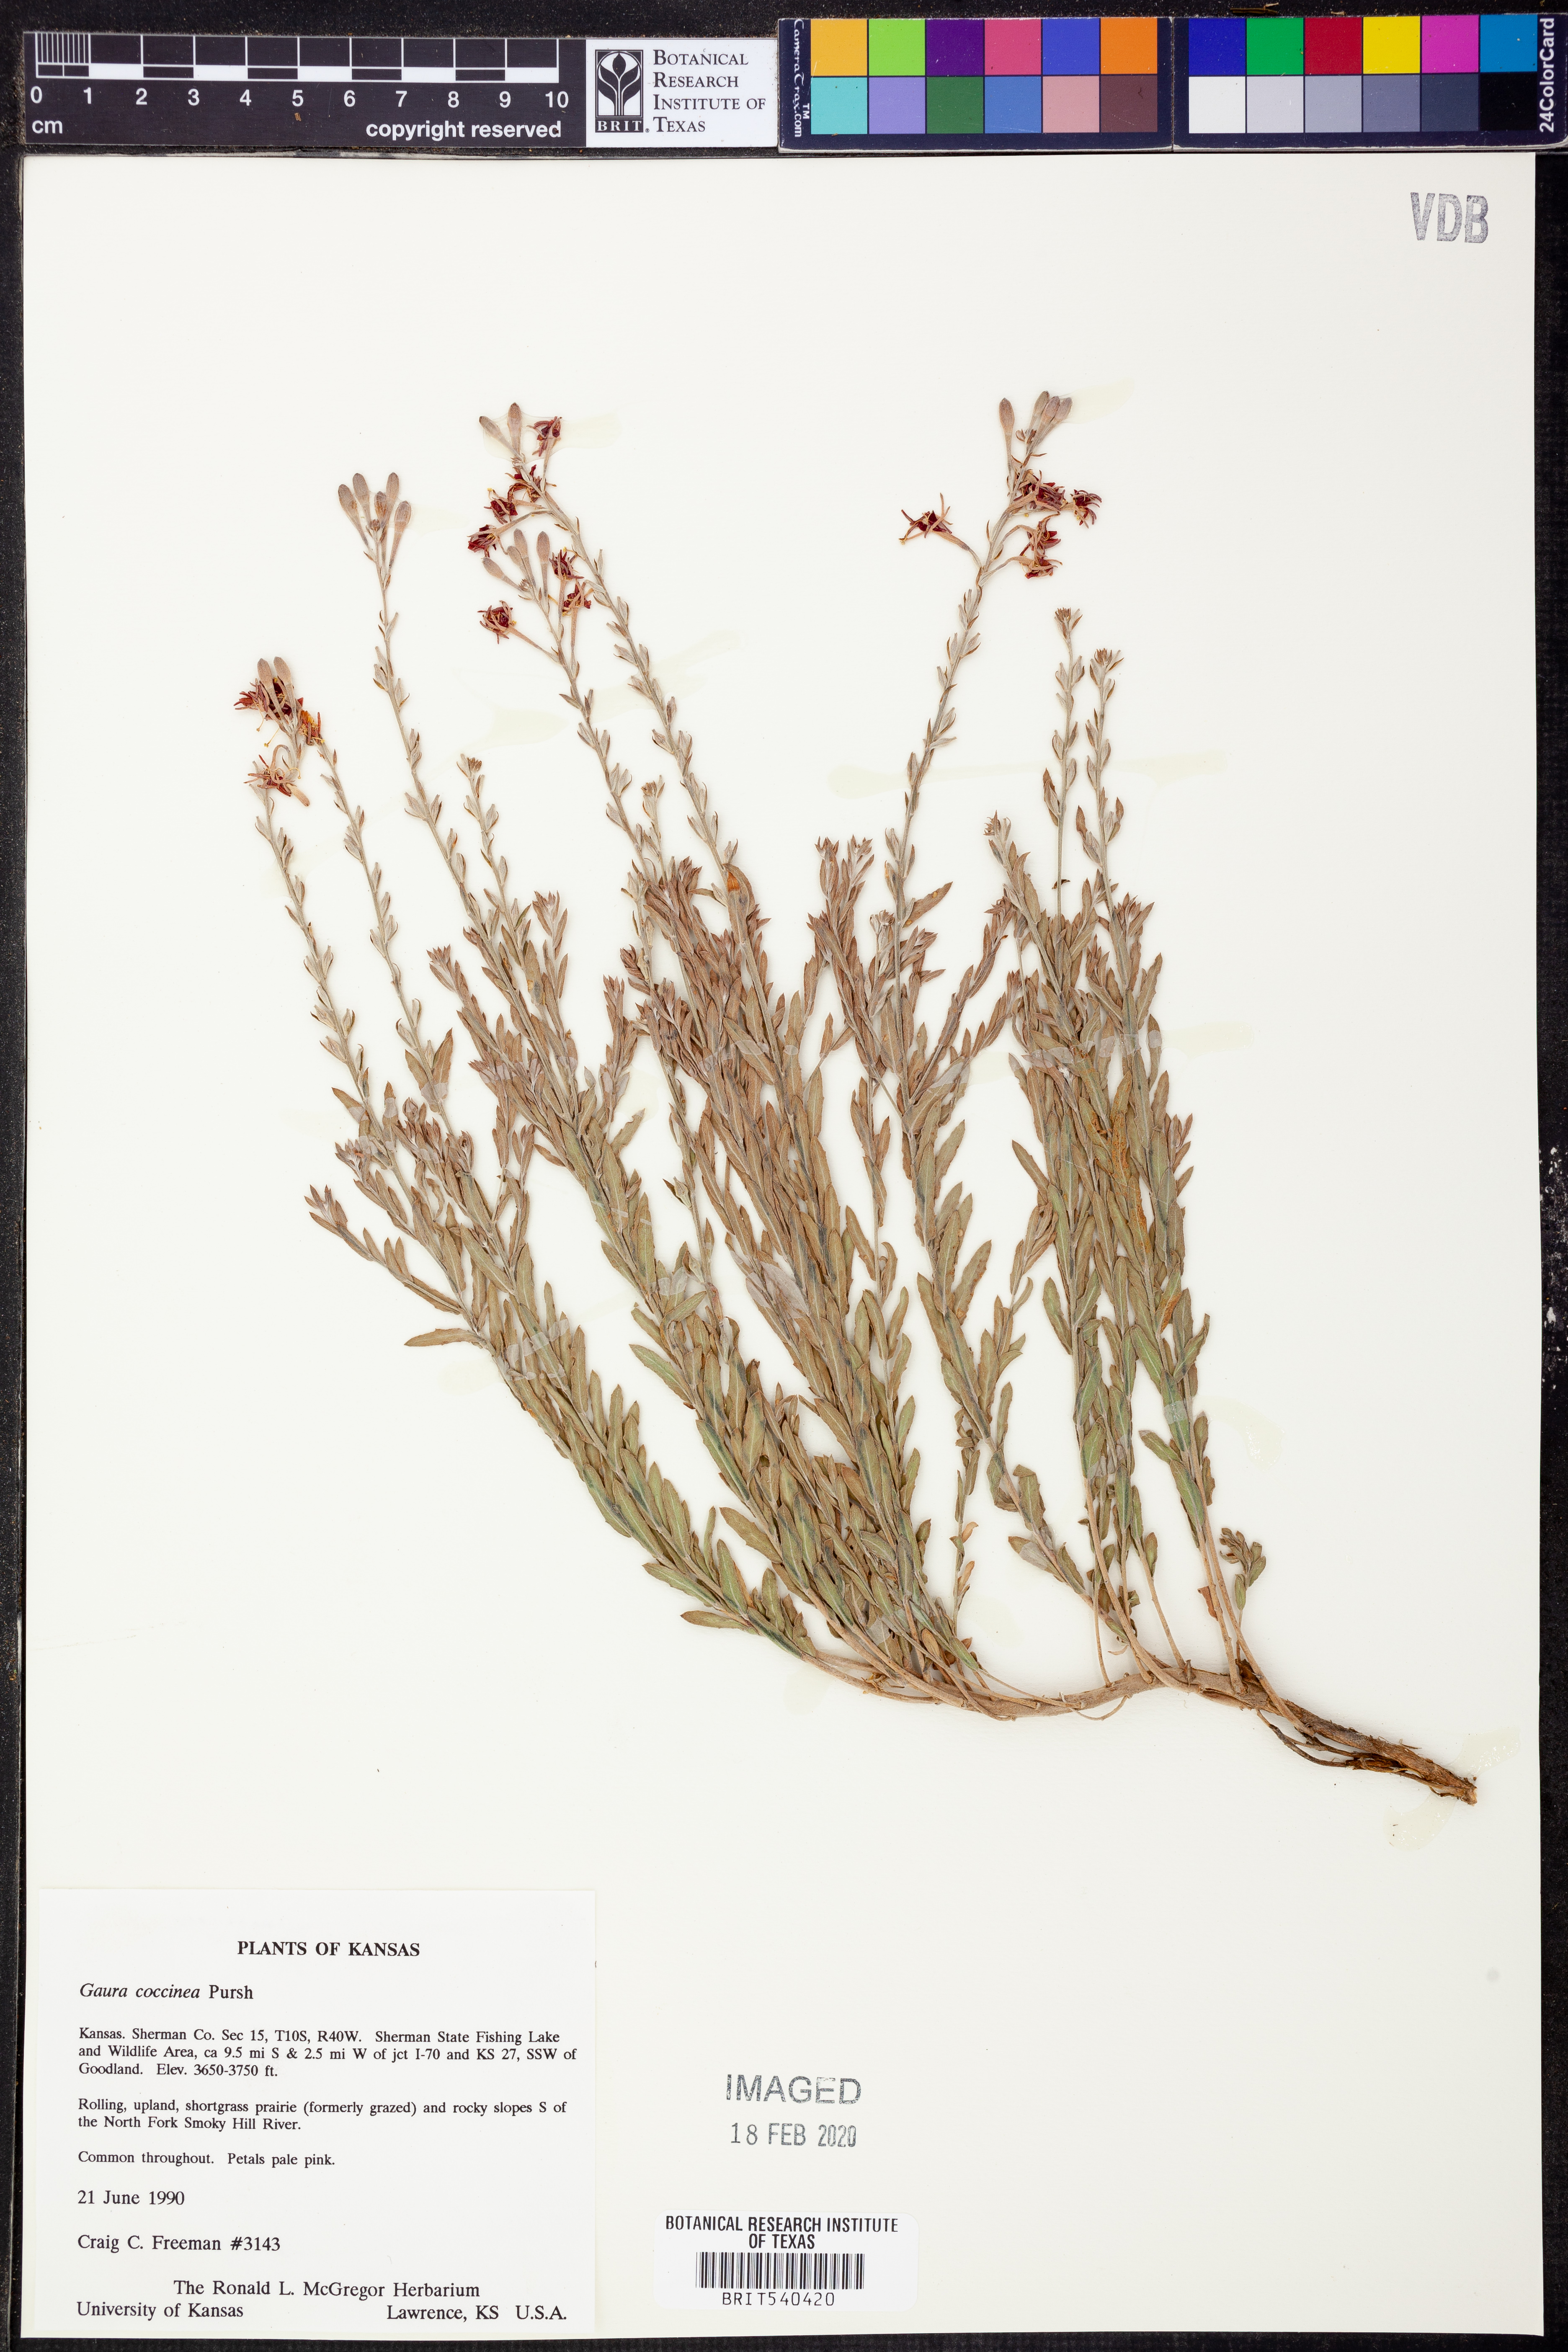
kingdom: Plantae
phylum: Tracheophyta
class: Magnoliopsida
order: Myrtales
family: Onagraceae
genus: Oenothera
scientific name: Oenothera suffrutescens
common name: Scarlet beeblossom
